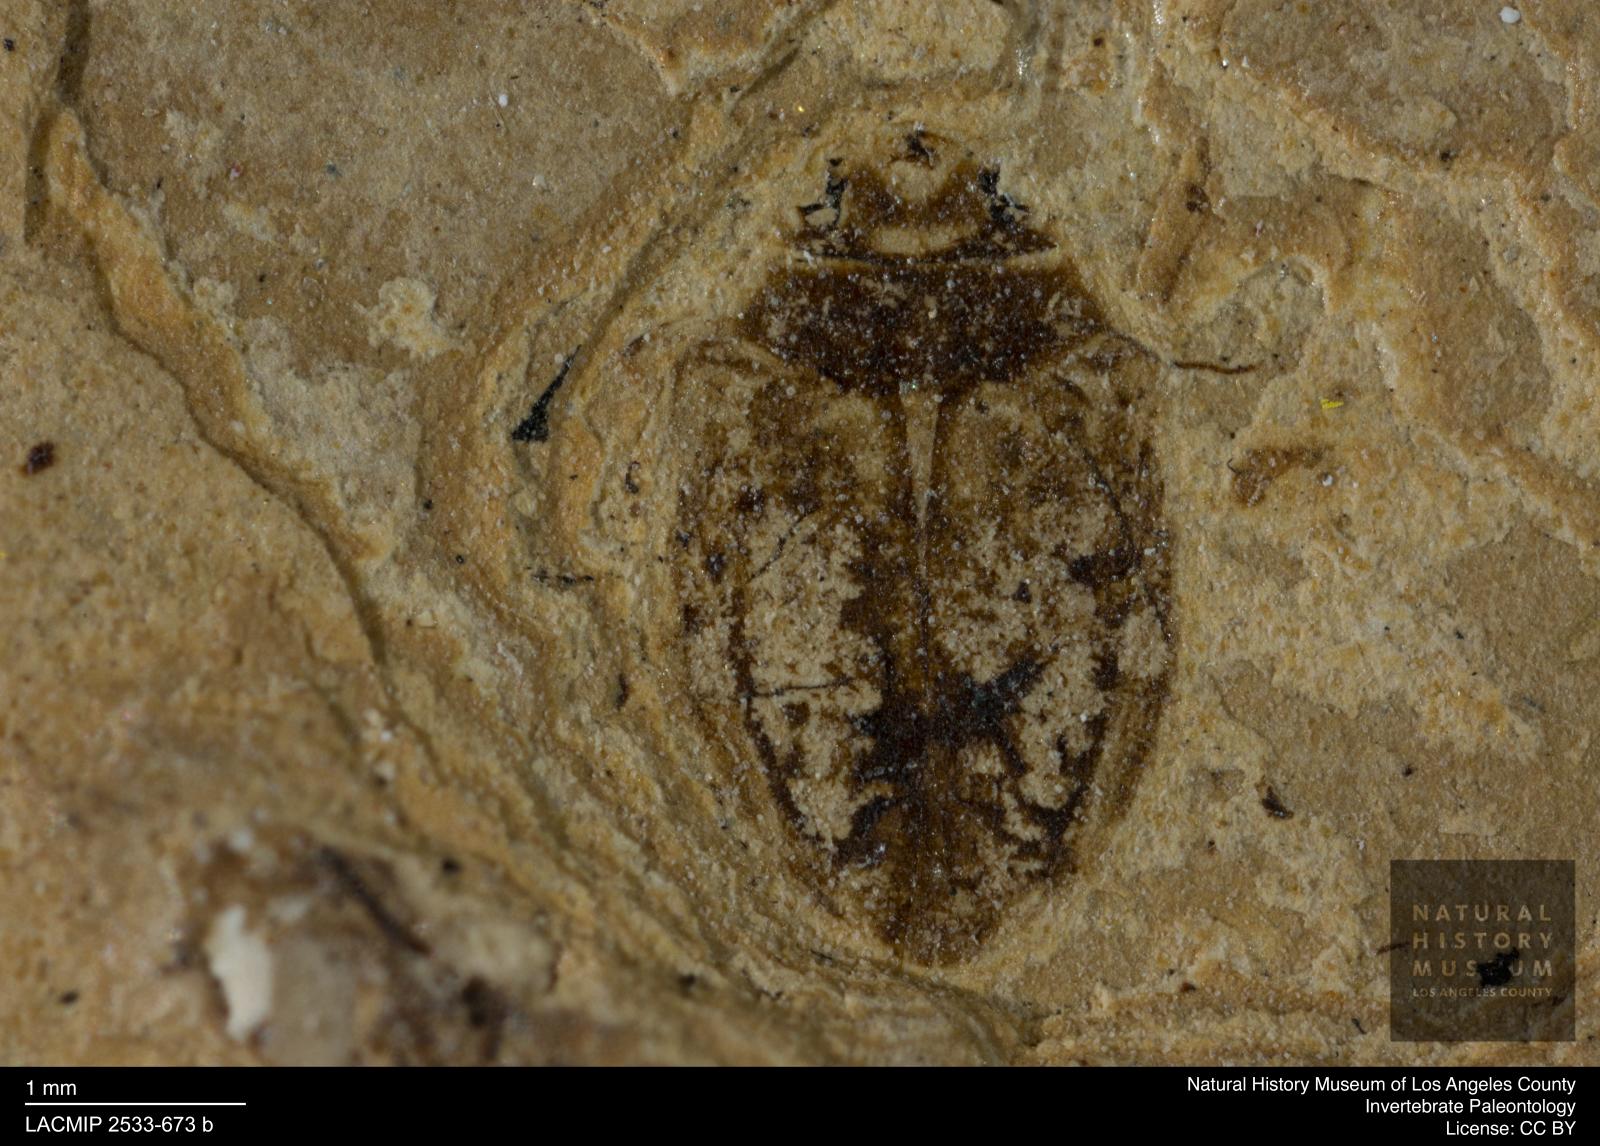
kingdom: Animalia
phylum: Arthropoda
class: Insecta
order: Coleoptera
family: Dytiscidae
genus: Hydroporus
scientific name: Hydroporus multipunctatus
